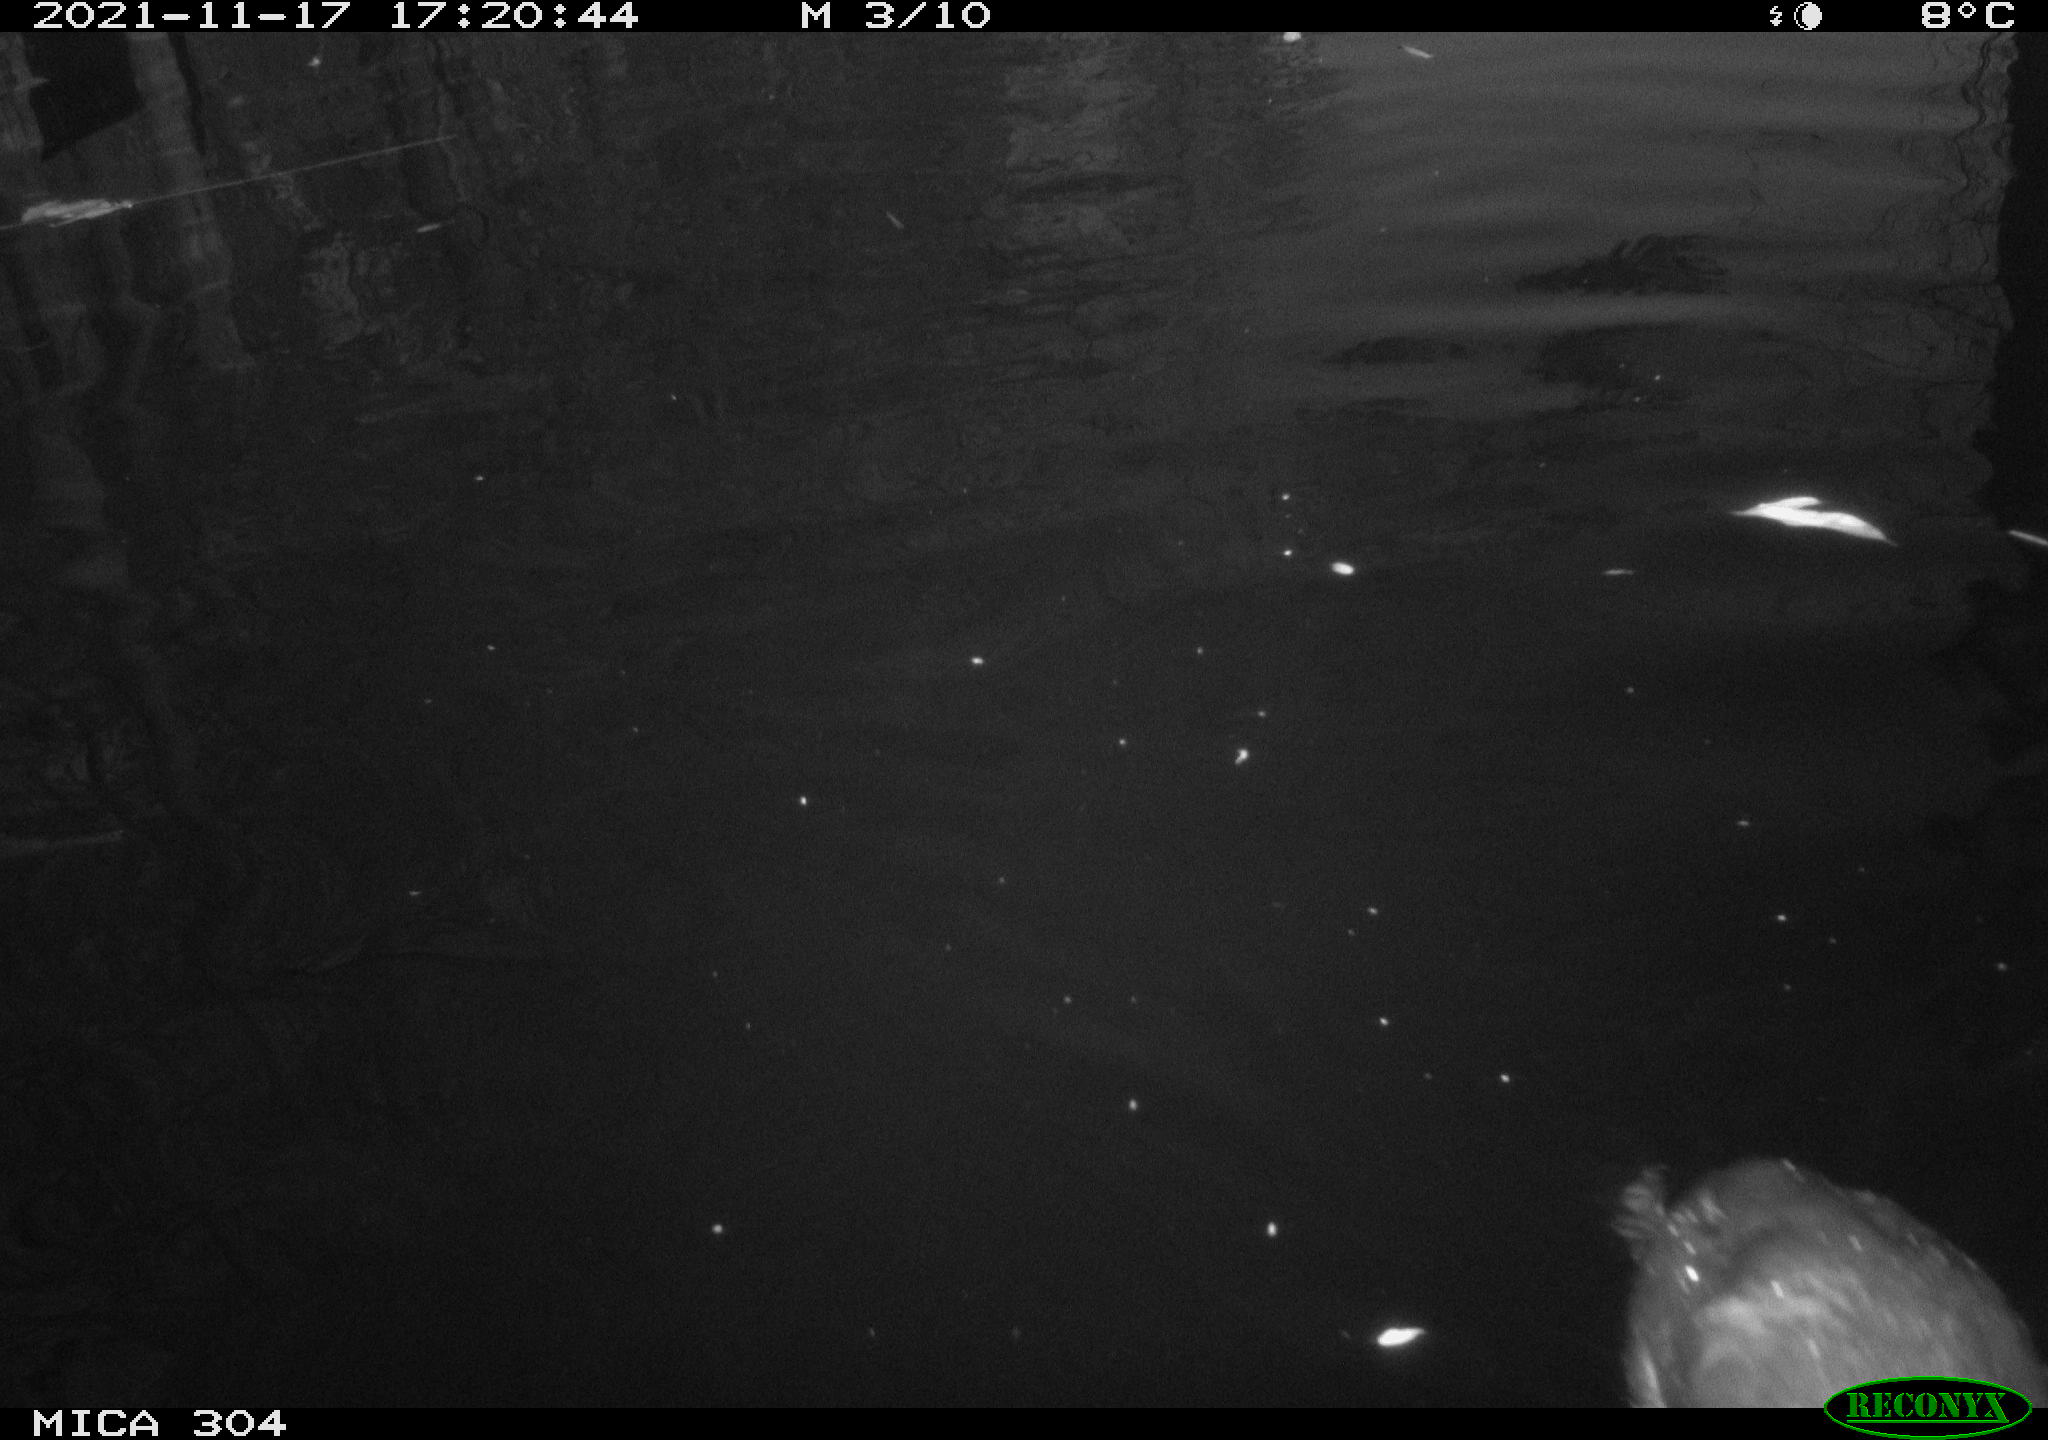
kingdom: Animalia
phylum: Chordata
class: Aves
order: Gruiformes
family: Rallidae
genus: Fulica
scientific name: Fulica atra
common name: Eurasian coot
